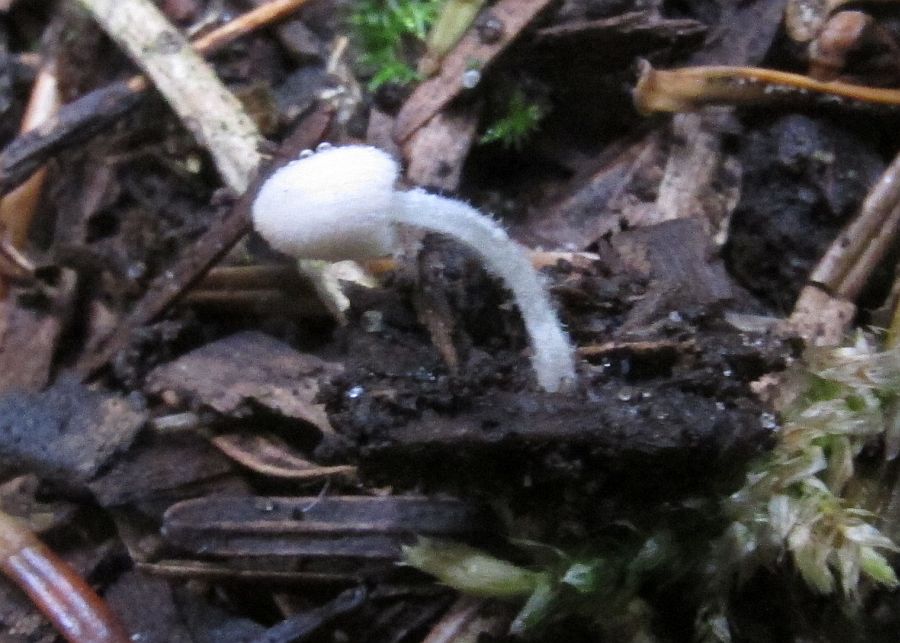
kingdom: Fungi
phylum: Basidiomycota
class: Agaricomycetes
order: Agaricales
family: Psathyrellaceae
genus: Coprinopsis
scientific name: Coprinopsis cortinata
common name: slør-blækhat
